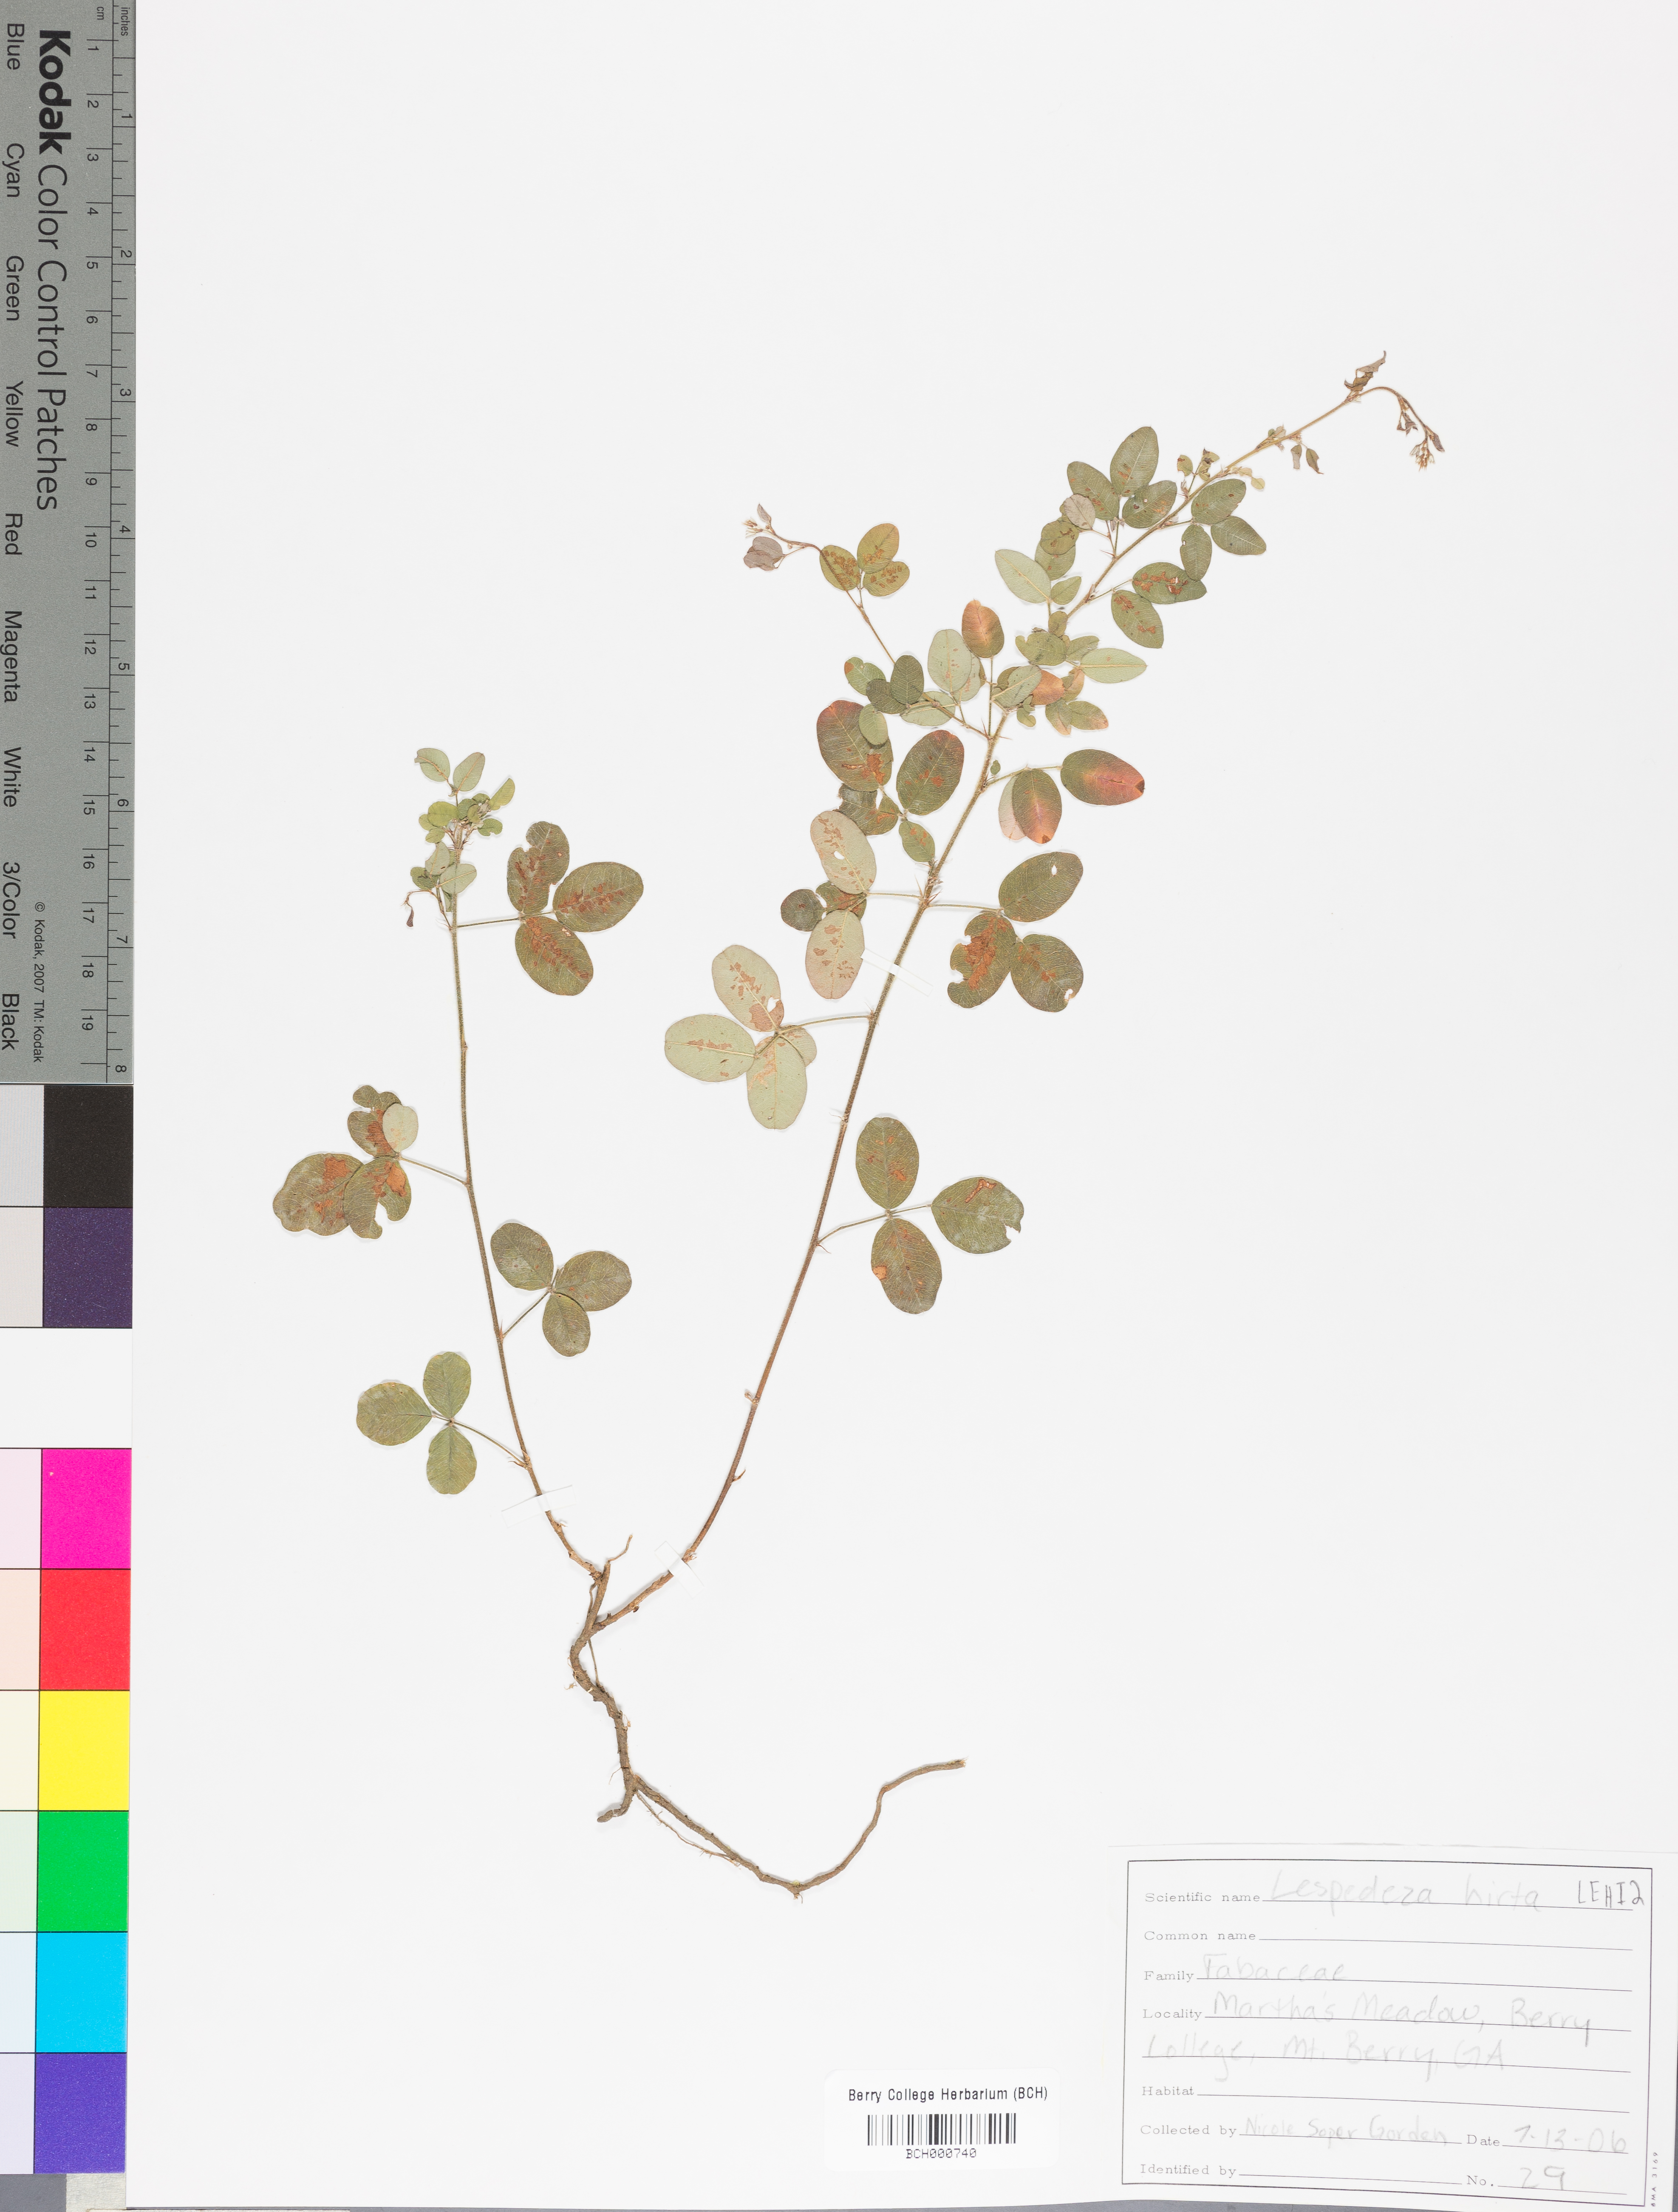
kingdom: Plantae
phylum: Tracheophyta
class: Magnoliopsida
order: Fabales
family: Fabaceae
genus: Lespedeza
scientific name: Lespedeza hirta
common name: Hairy lespedeza
